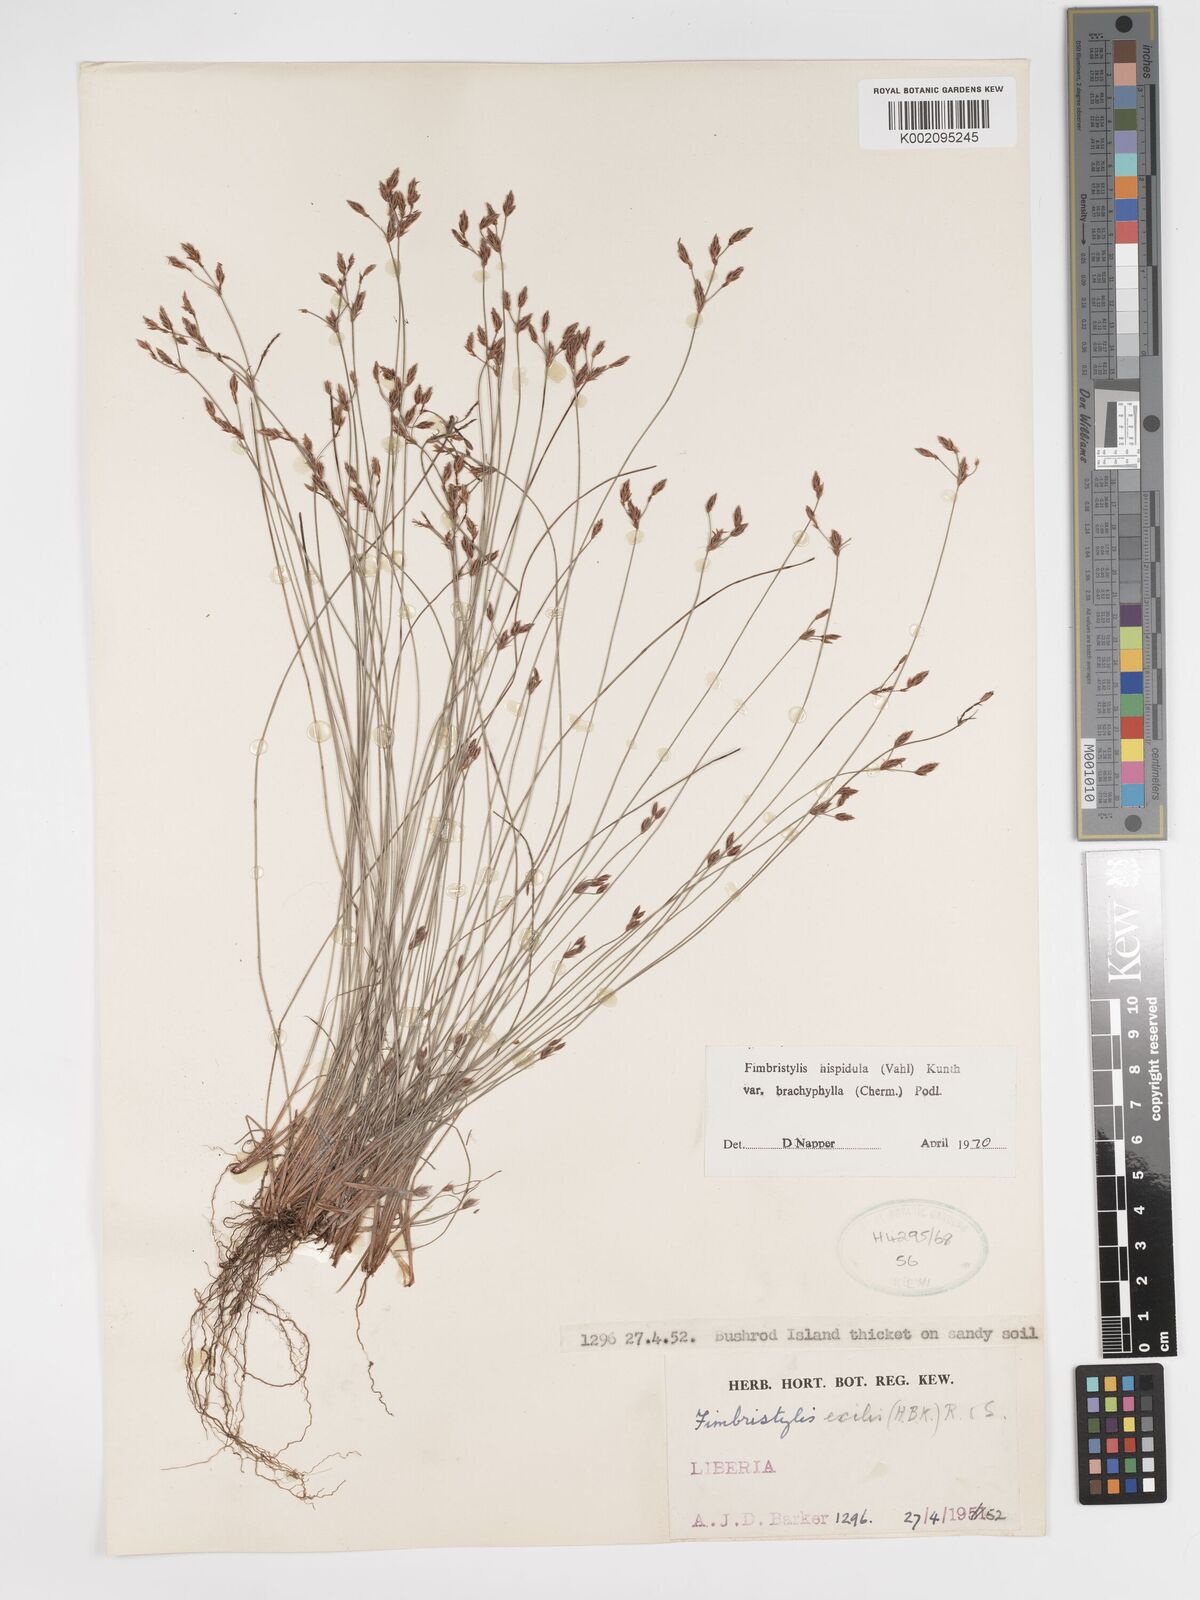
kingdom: Plantae
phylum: Tracheophyta
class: Liliopsida
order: Poales
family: Cyperaceae
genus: Bulbostylis
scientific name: Bulbostylis hispidula
